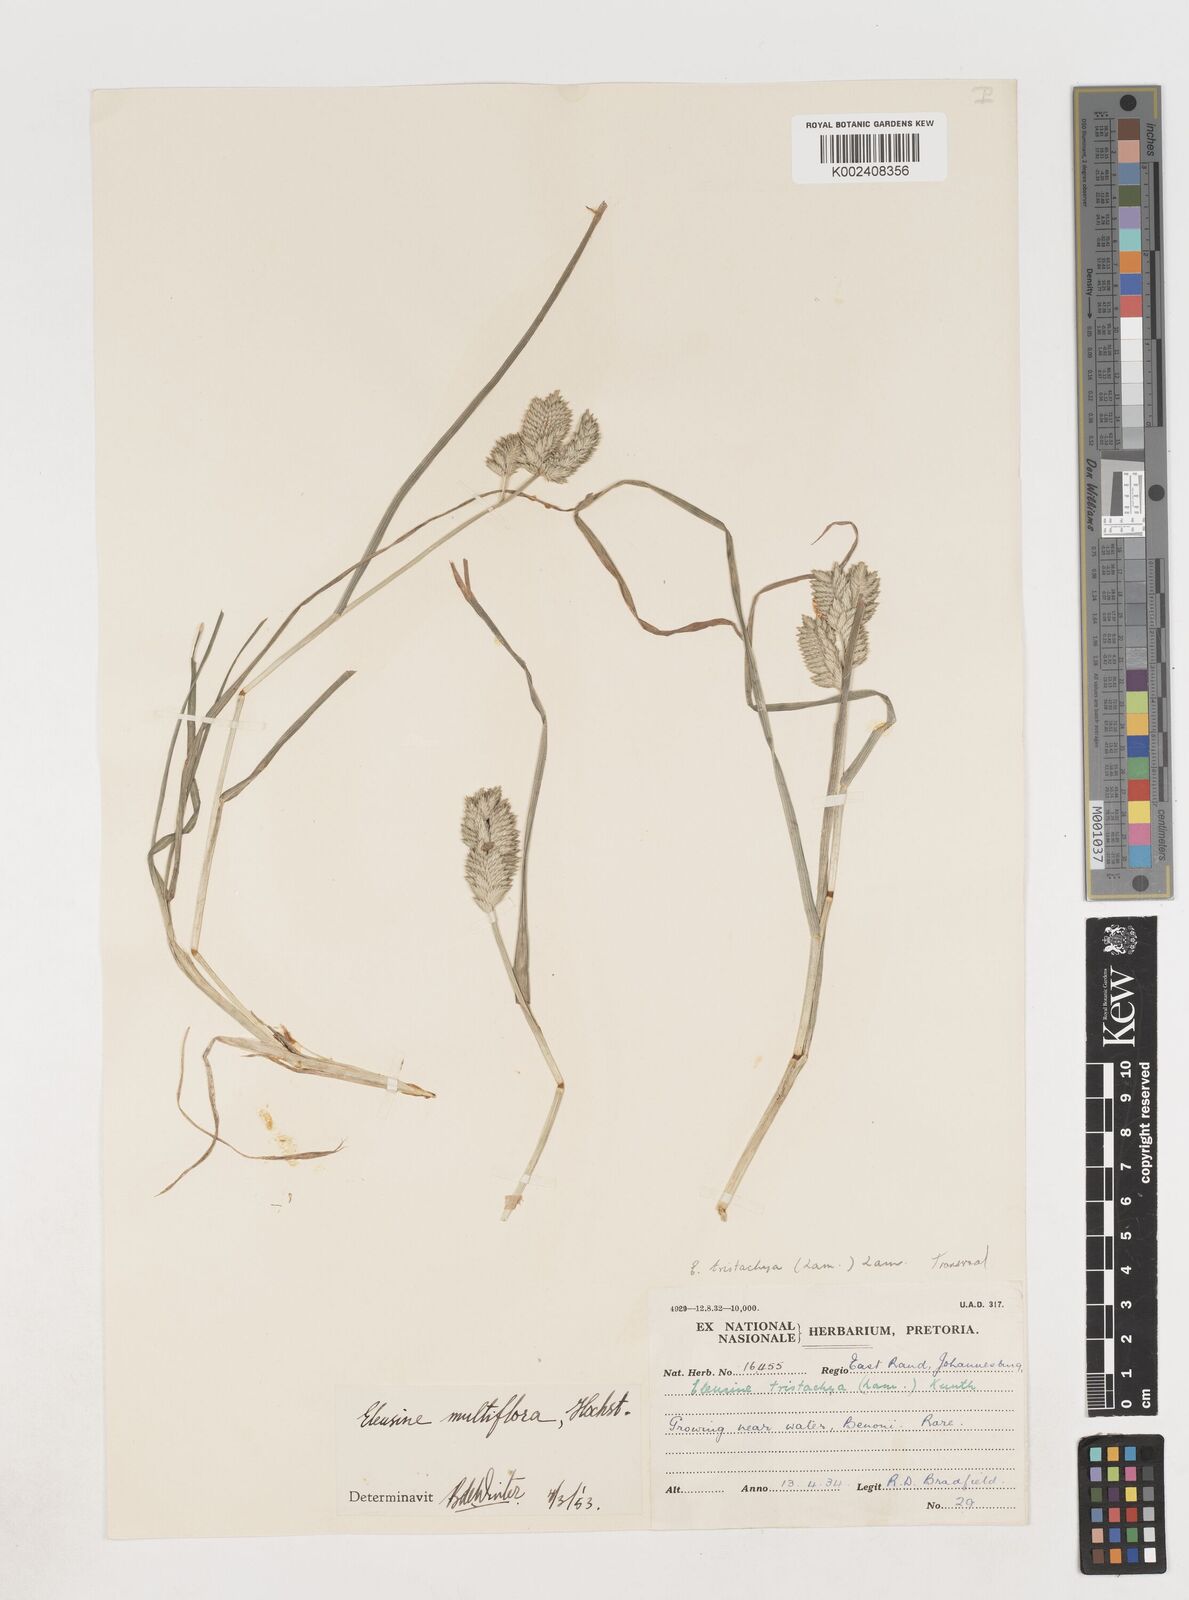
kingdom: Plantae
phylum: Tracheophyta
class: Liliopsida
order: Poales
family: Poaceae
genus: Eleusine
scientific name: Eleusine multiflora
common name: Fat-spiked yard-grass
